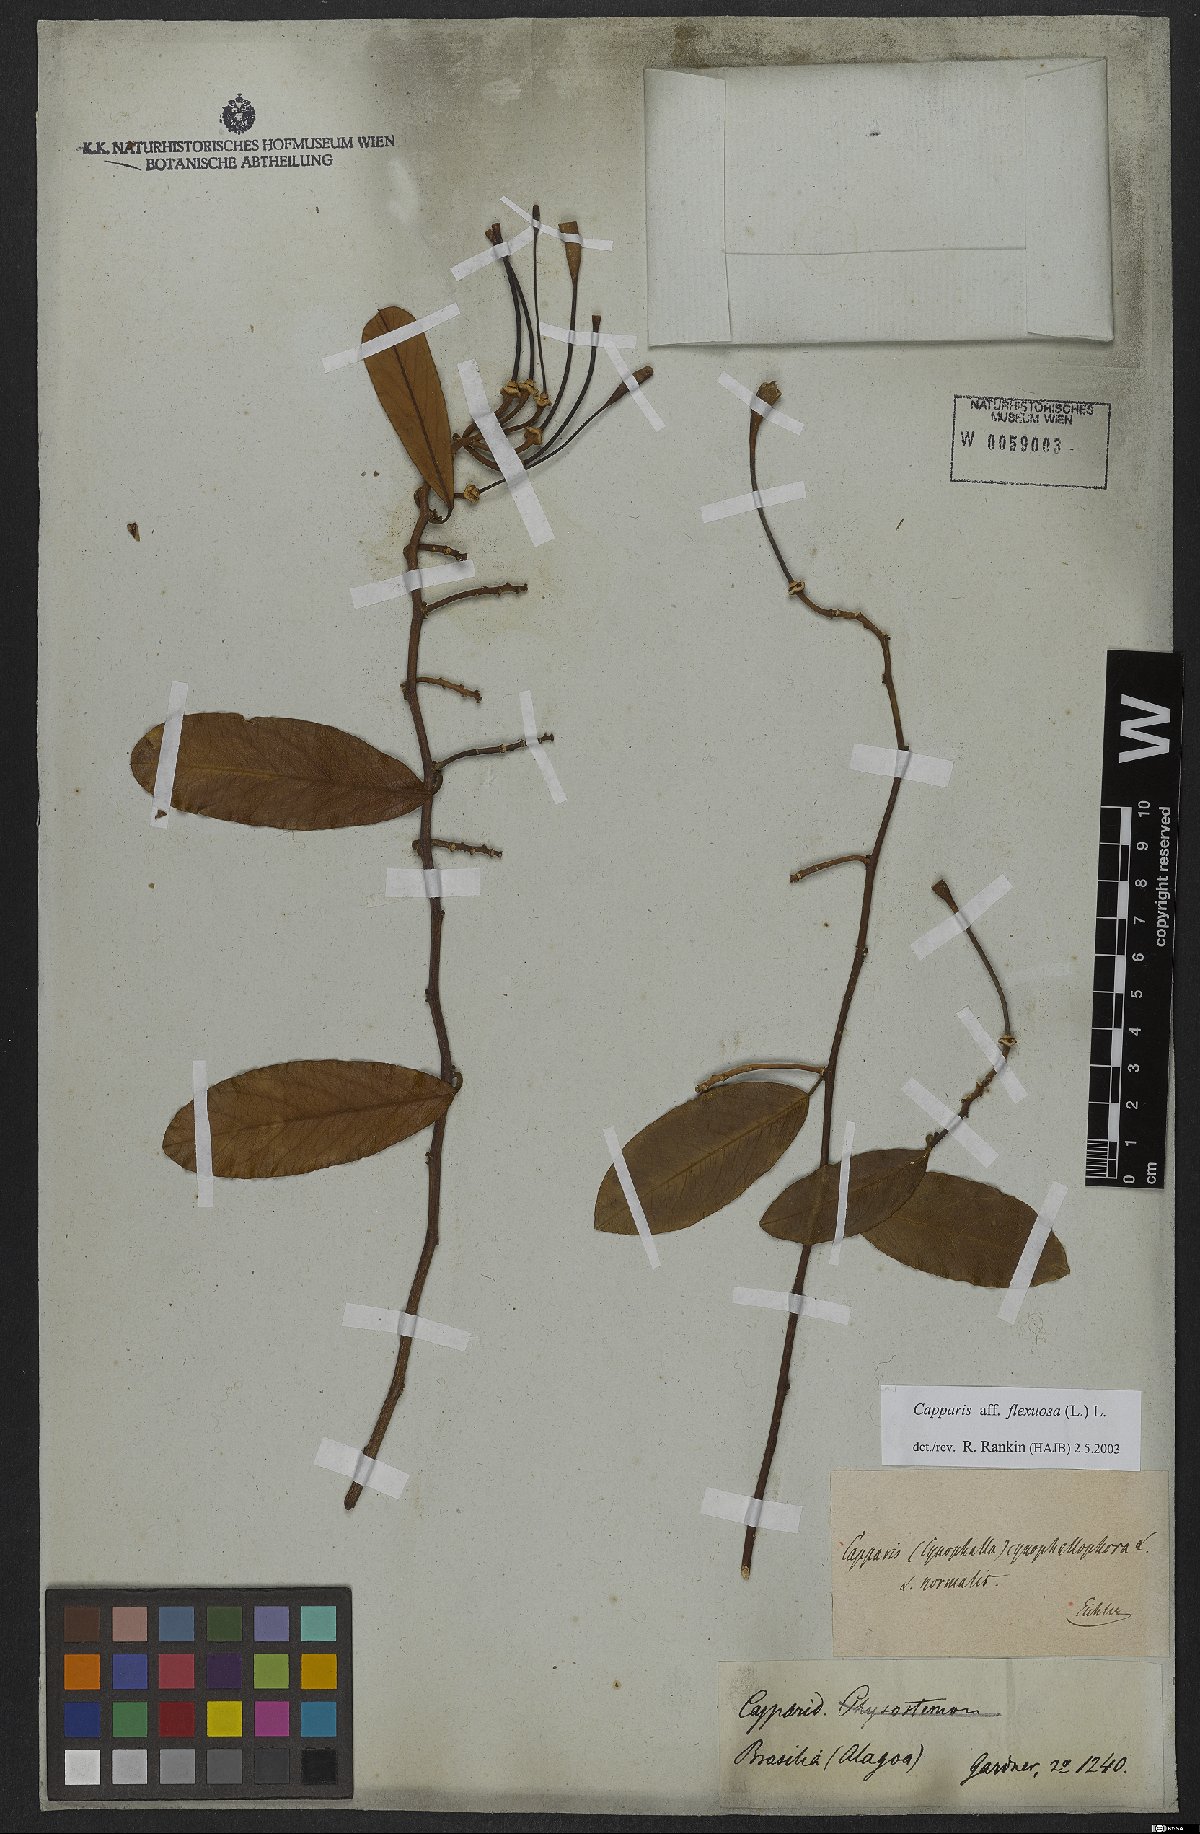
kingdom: Plantae
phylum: Tracheophyta
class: Magnoliopsida
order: Brassicales
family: Capparaceae
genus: Cynophalla
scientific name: Cynophalla flexuosa
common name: Capertree
